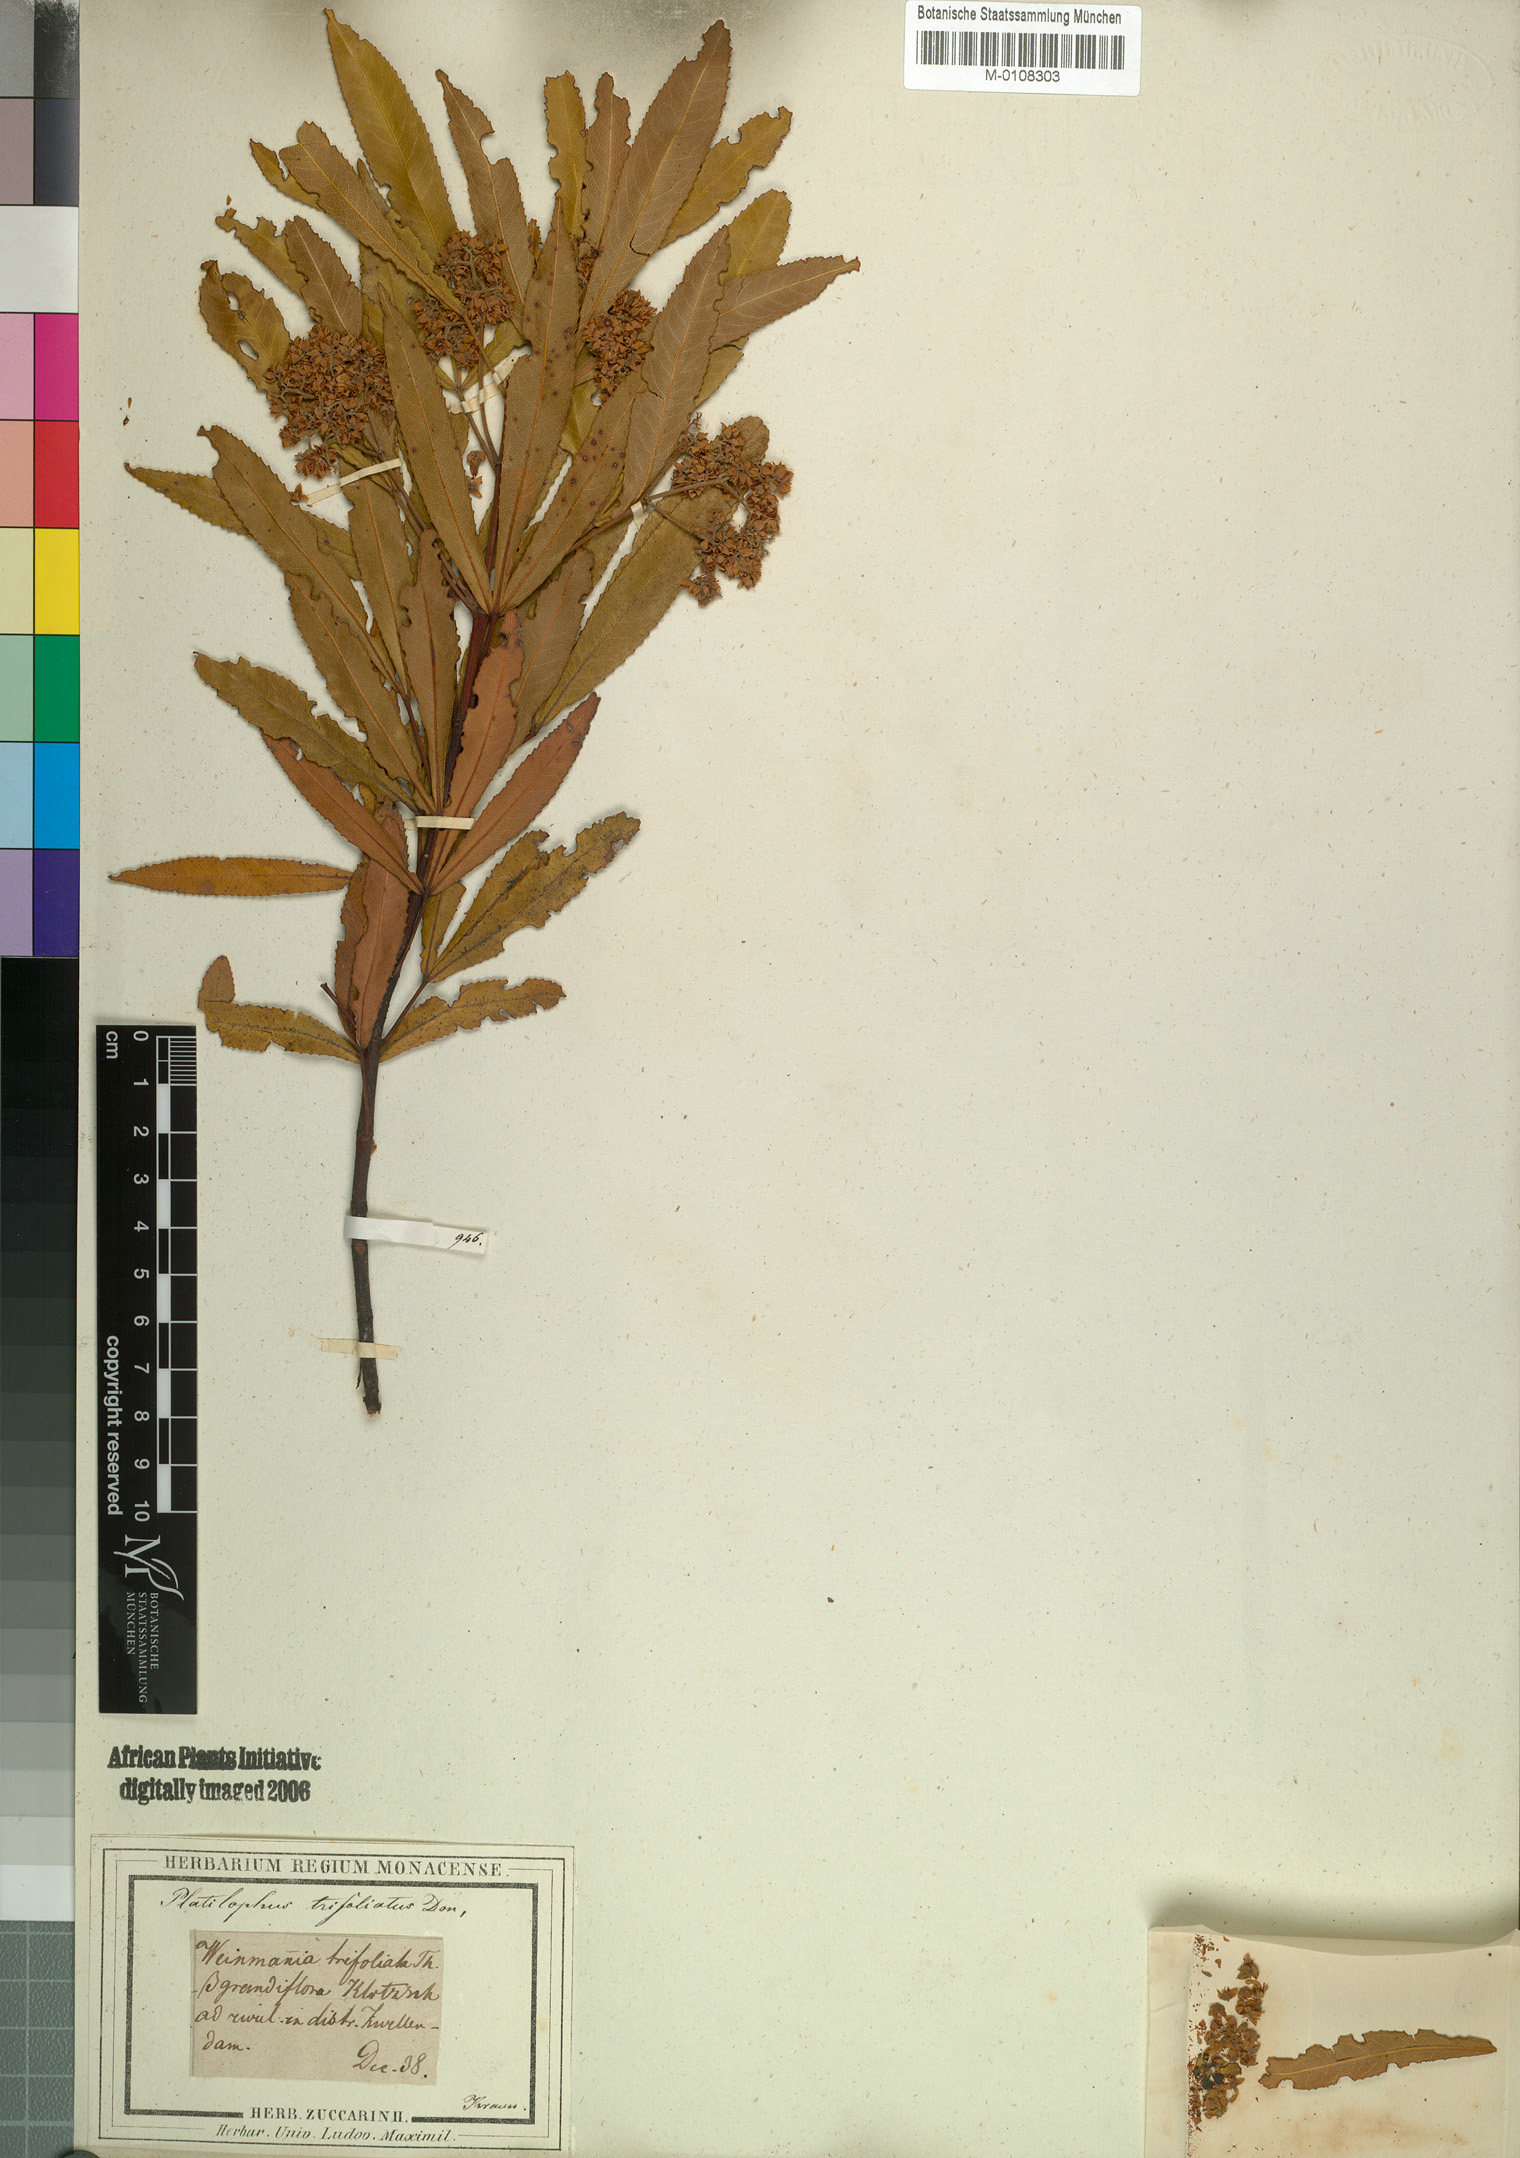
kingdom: Plantae
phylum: Tracheophyta
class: Magnoliopsida
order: Oxalidales
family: Cunoniaceae
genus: Weinmannia
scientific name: Weinmannia trifoliata
